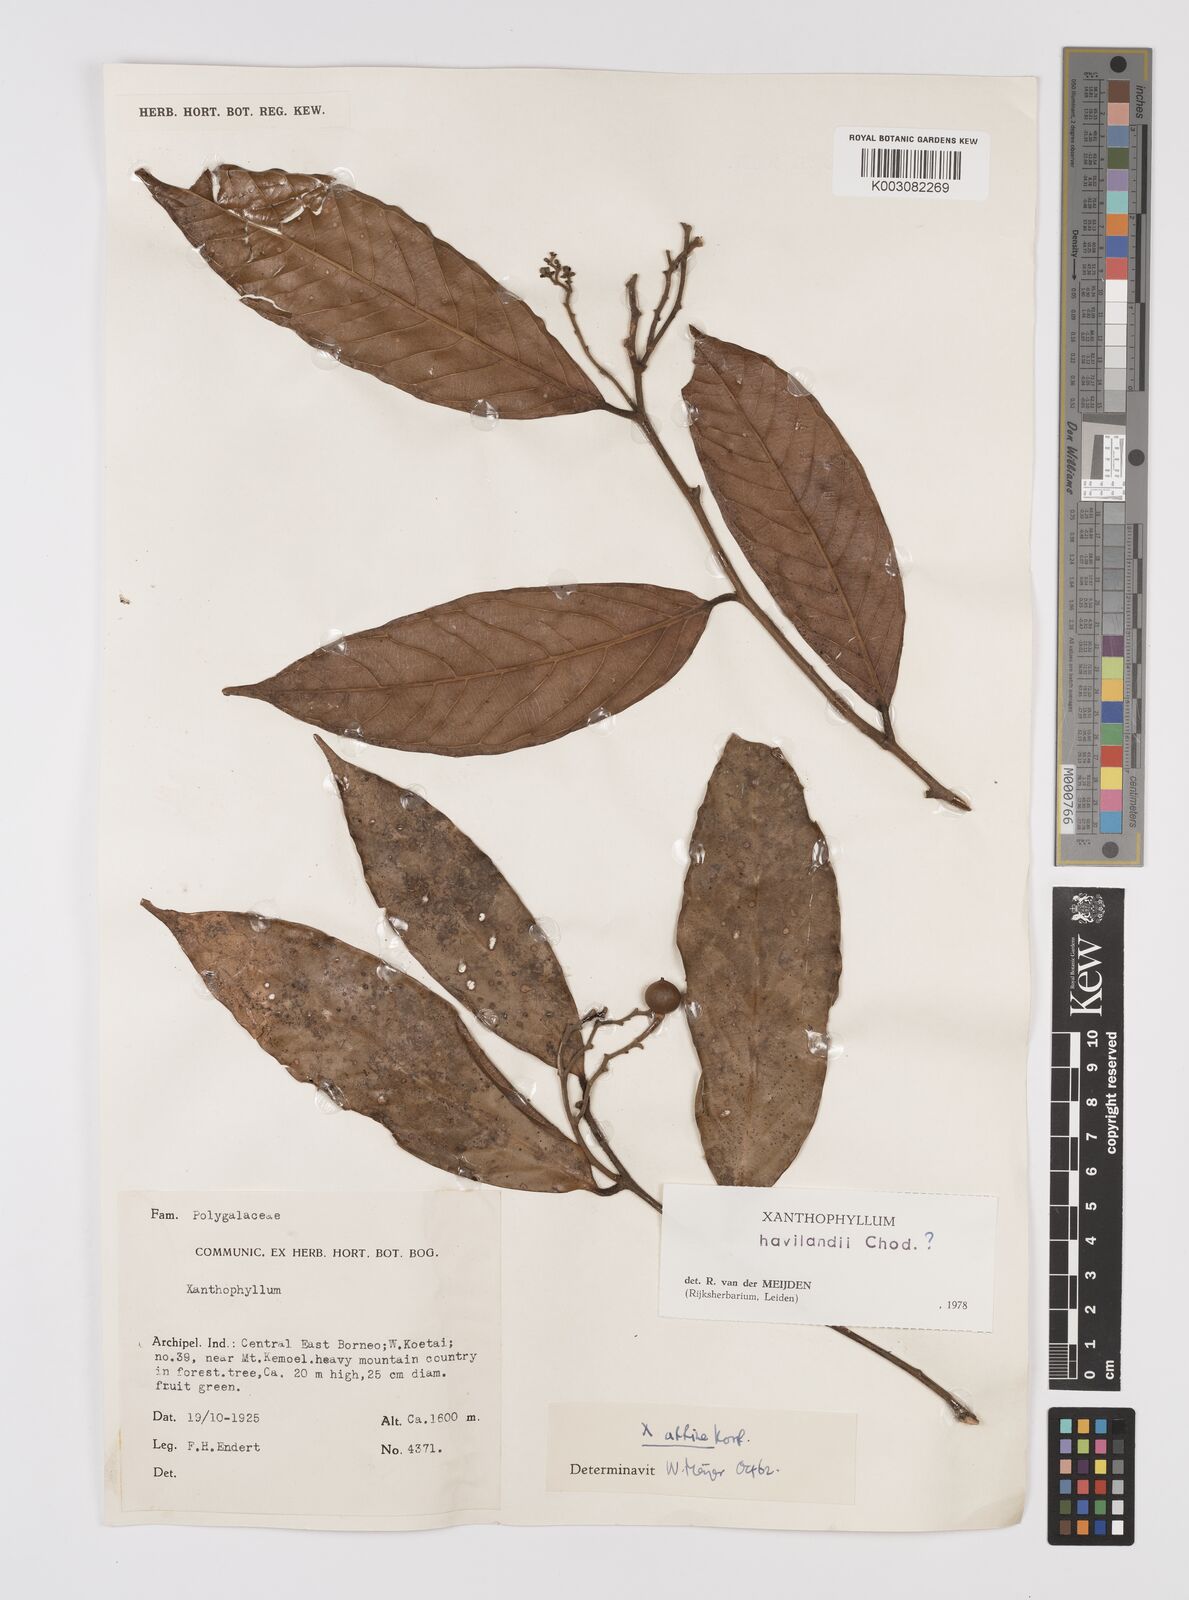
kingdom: Plantae
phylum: Tracheophyta
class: Magnoliopsida
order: Fabales
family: Polygalaceae
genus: Xanthophyllum
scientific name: Xanthophyllum flavescens
